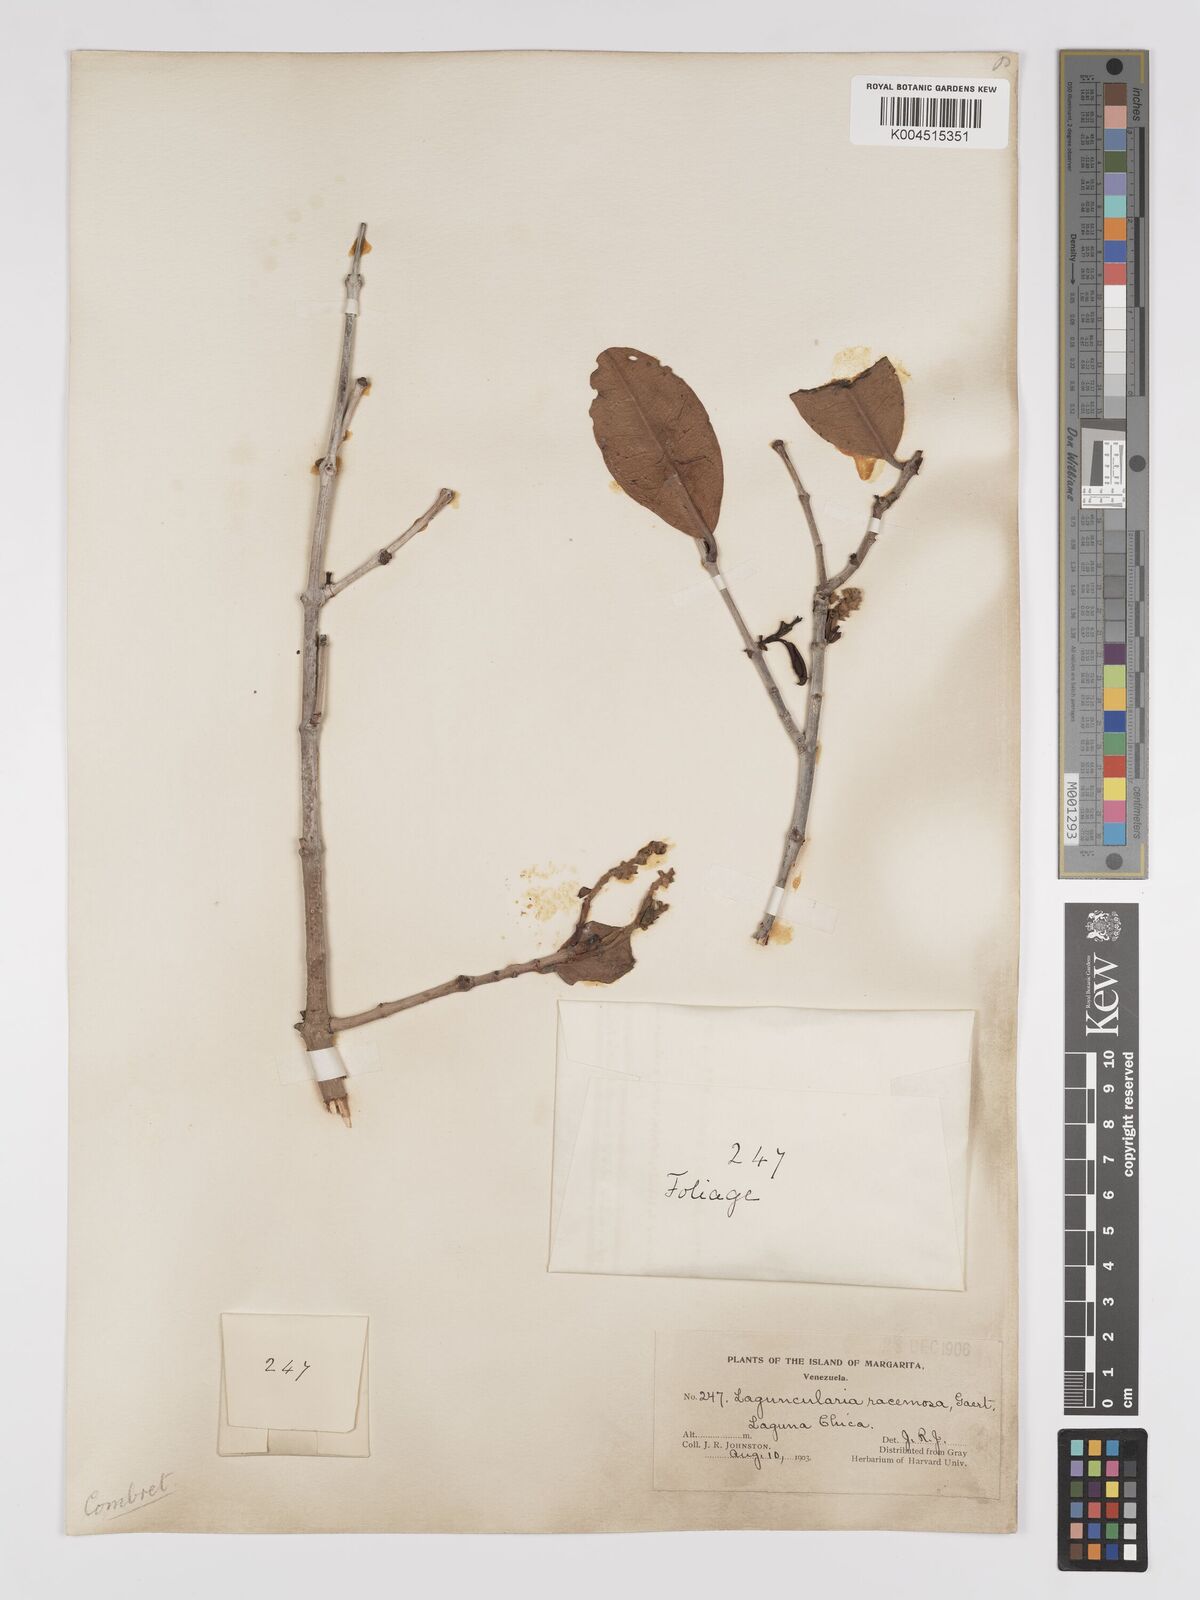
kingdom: Plantae
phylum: Tracheophyta
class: Magnoliopsida
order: Myrtales
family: Combretaceae
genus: Laguncularia
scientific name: Laguncularia racemosa
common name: White mangrove
